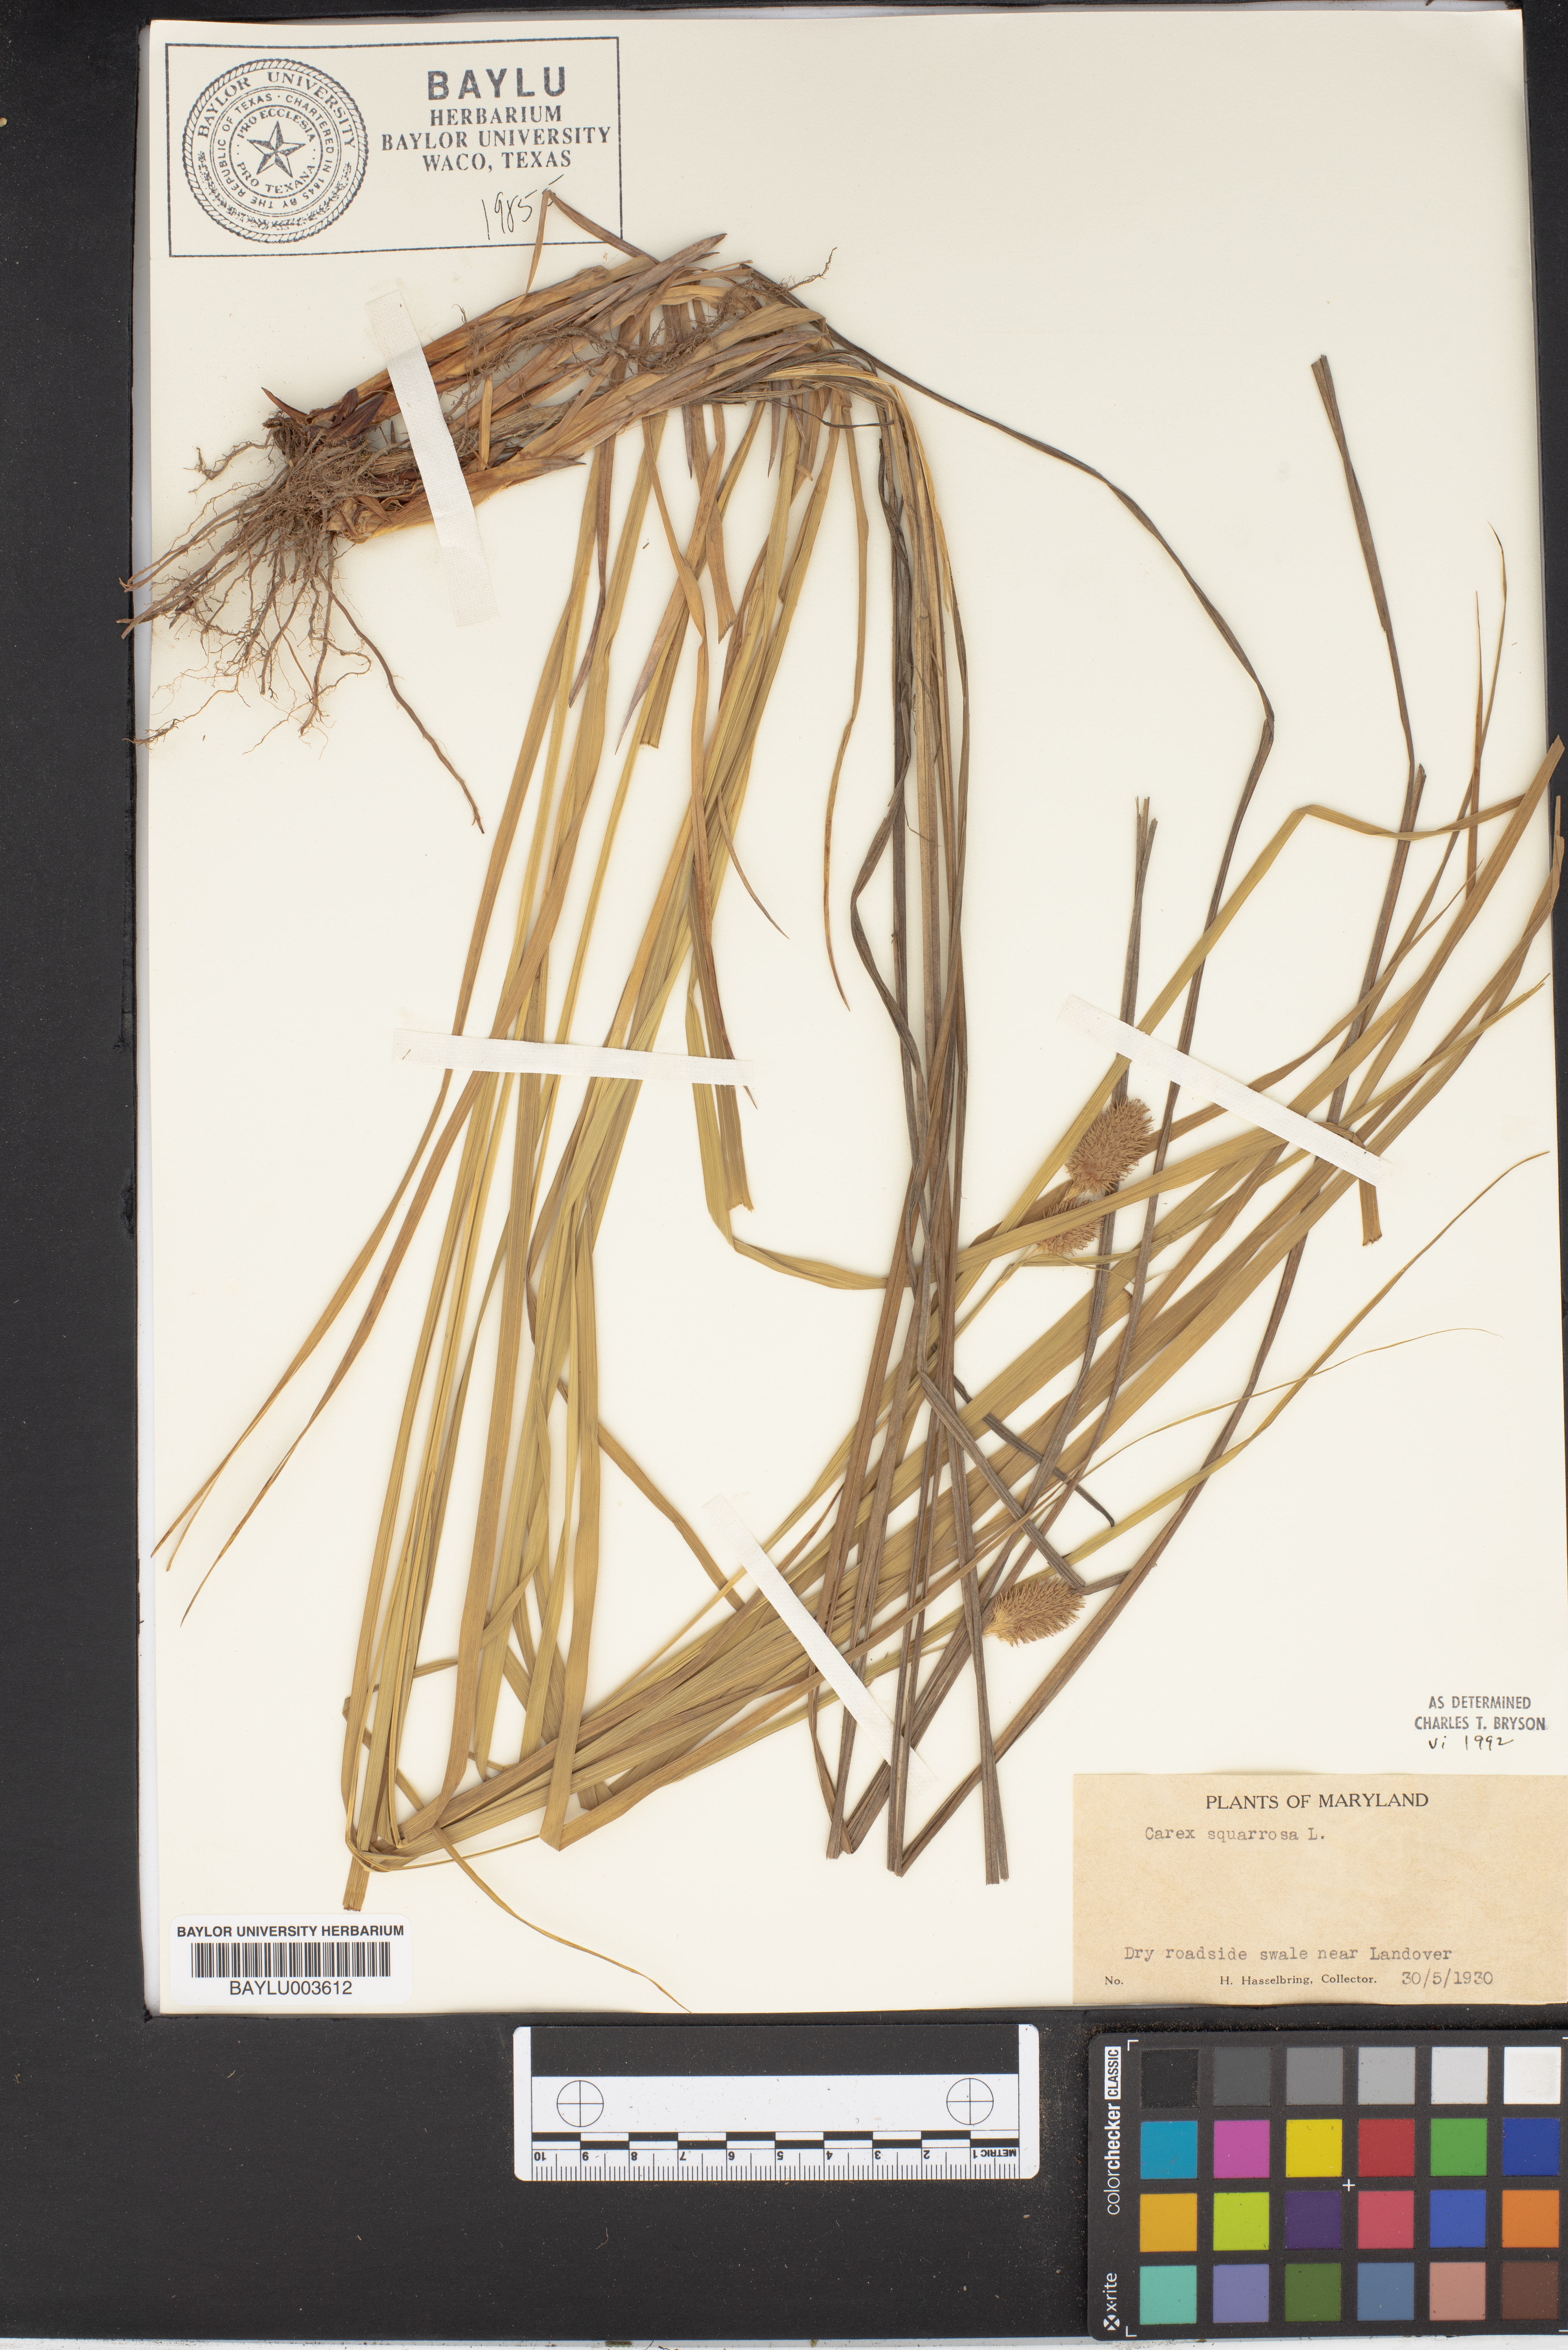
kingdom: Plantae
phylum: Tracheophyta
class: Liliopsida
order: Poales
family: Cyperaceae
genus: Carex
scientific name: Carex squarrosa
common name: Narrow-leaved cattail sedge
